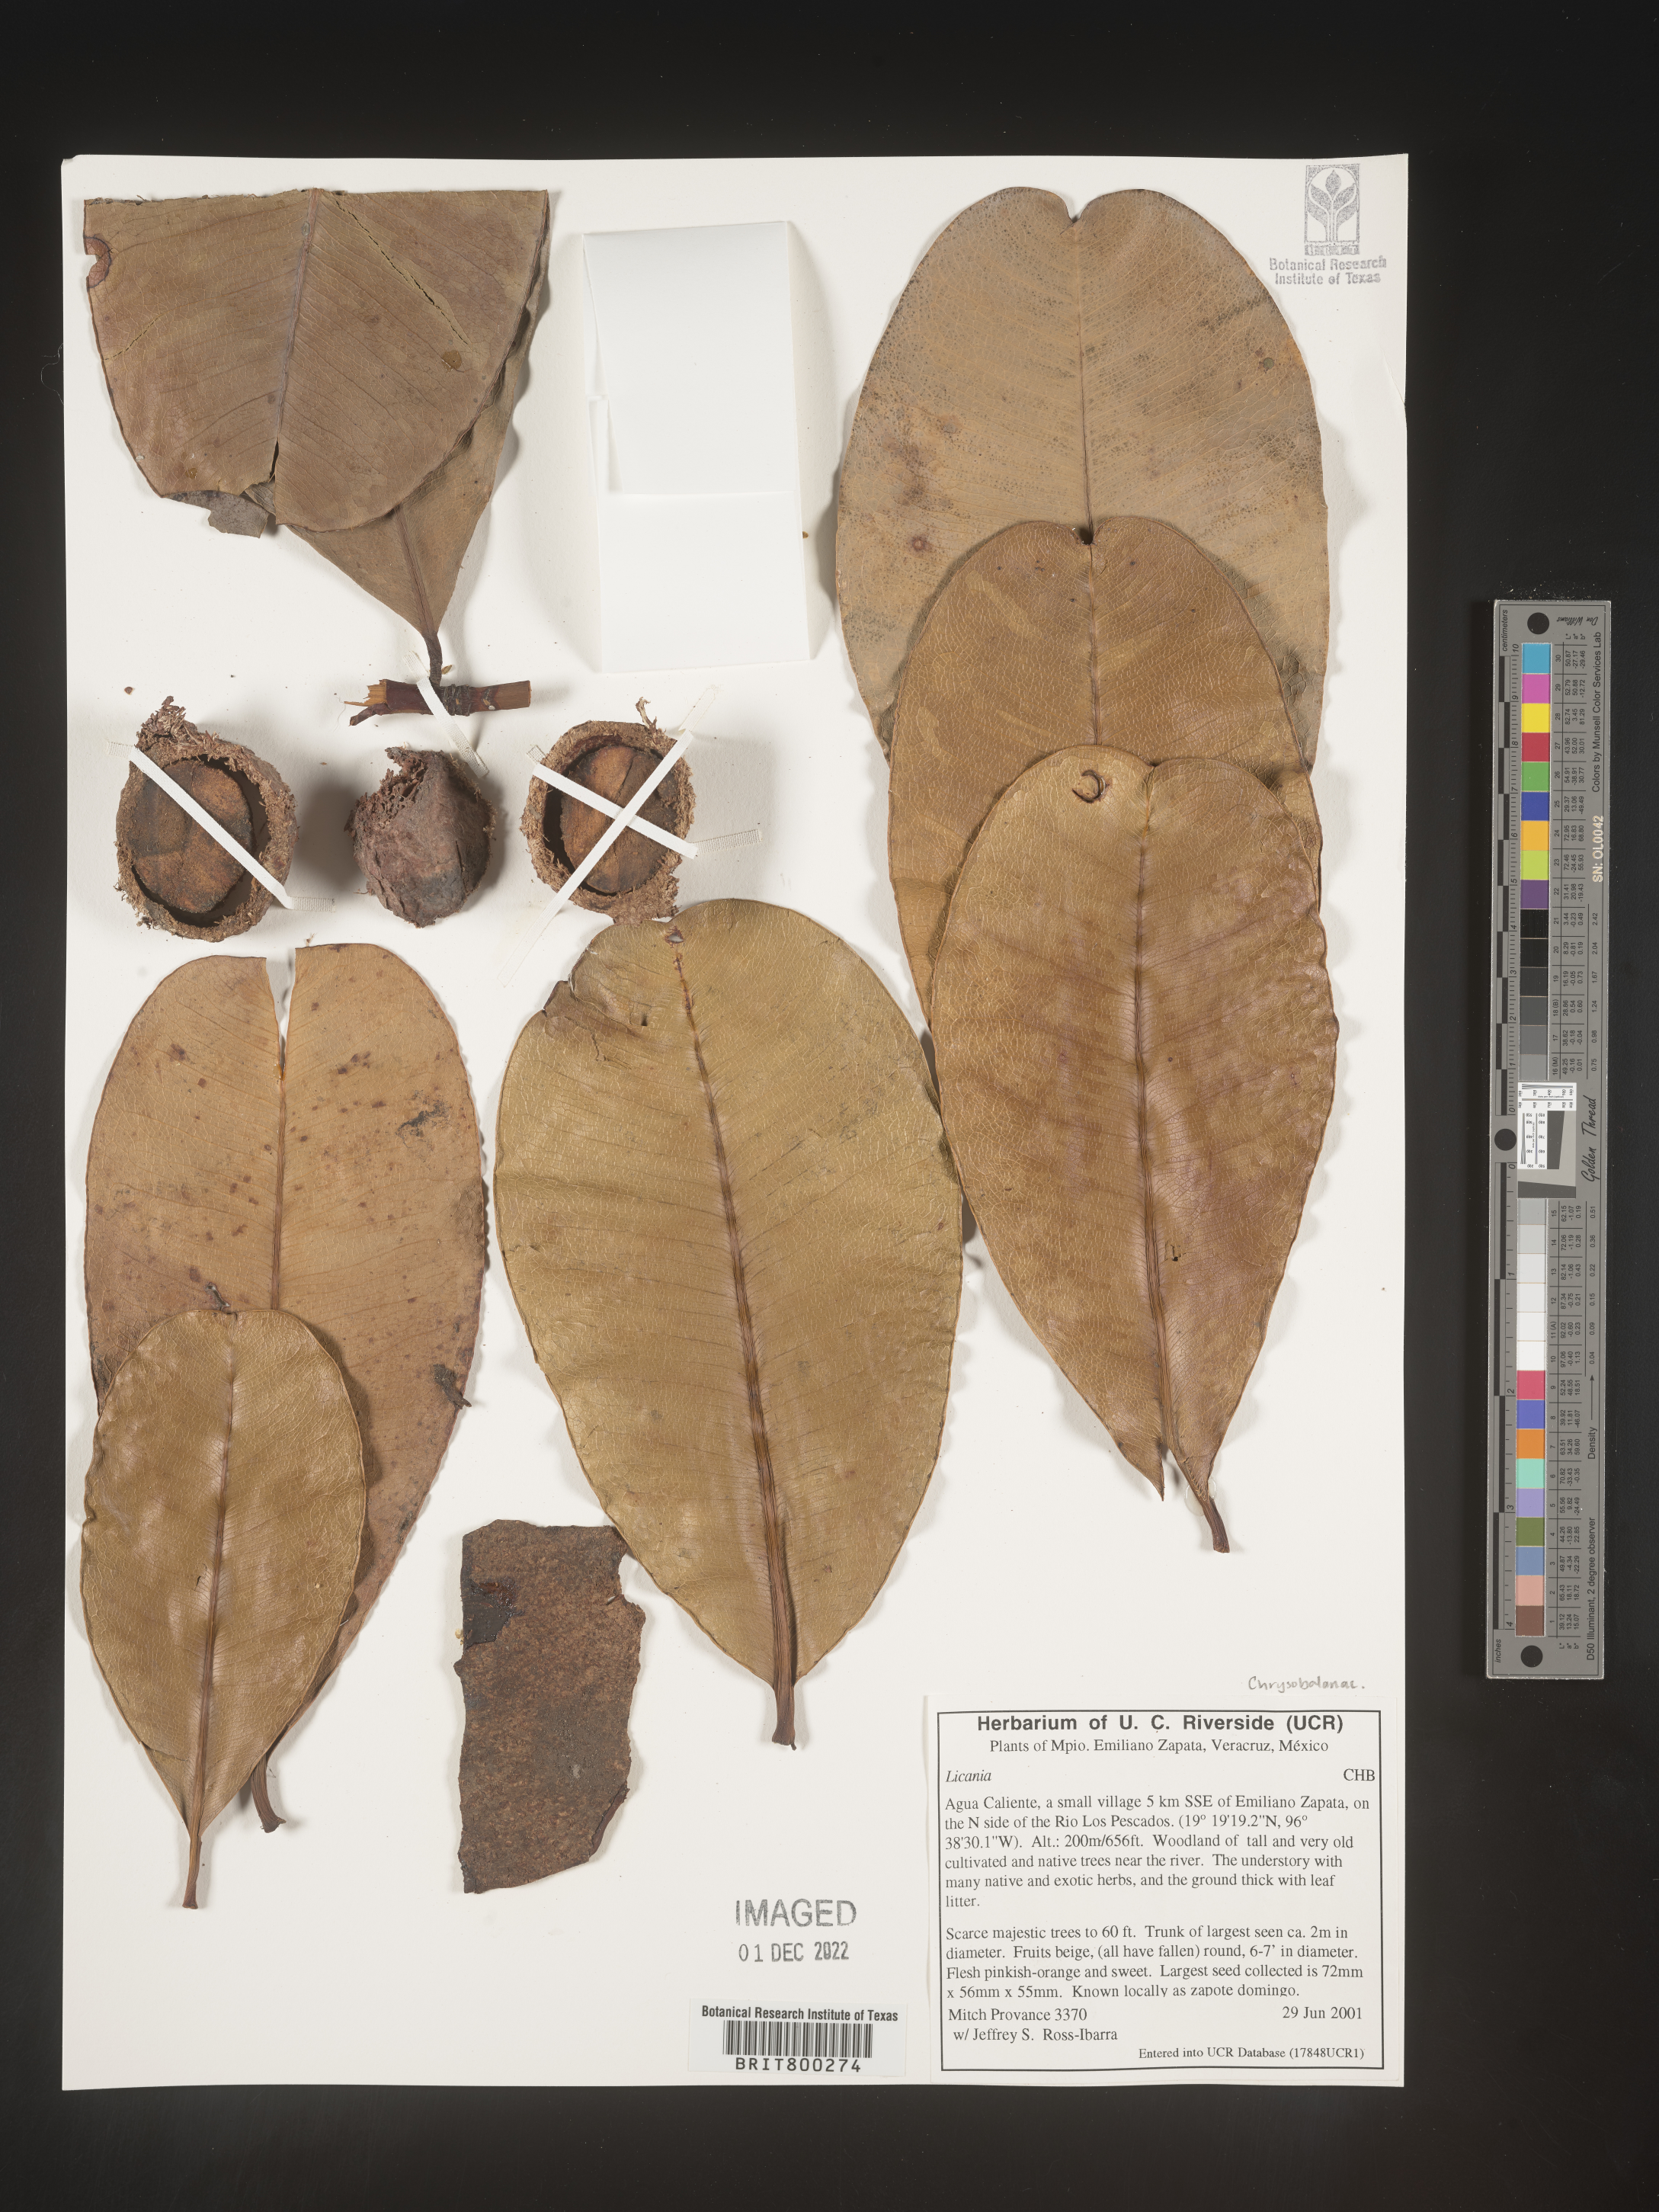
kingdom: Plantae
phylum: Tracheophyta
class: Magnoliopsida
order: Malpighiales
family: Chrysobalanaceae
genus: Geobalanus
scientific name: Geobalanus oblongifolius
